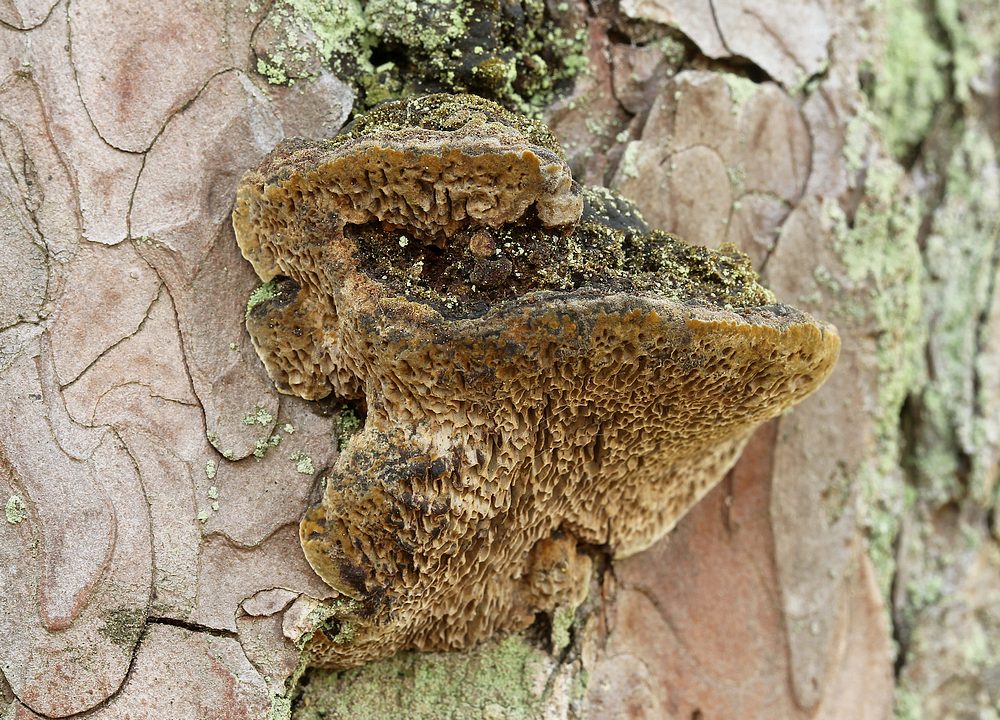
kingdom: Fungi
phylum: Basidiomycota
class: Agaricomycetes
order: Hymenochaetales
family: Hymenochaetaceae
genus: Porodaedalea
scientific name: Porodaedalea pini
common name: fyrre-ildporesvamp
